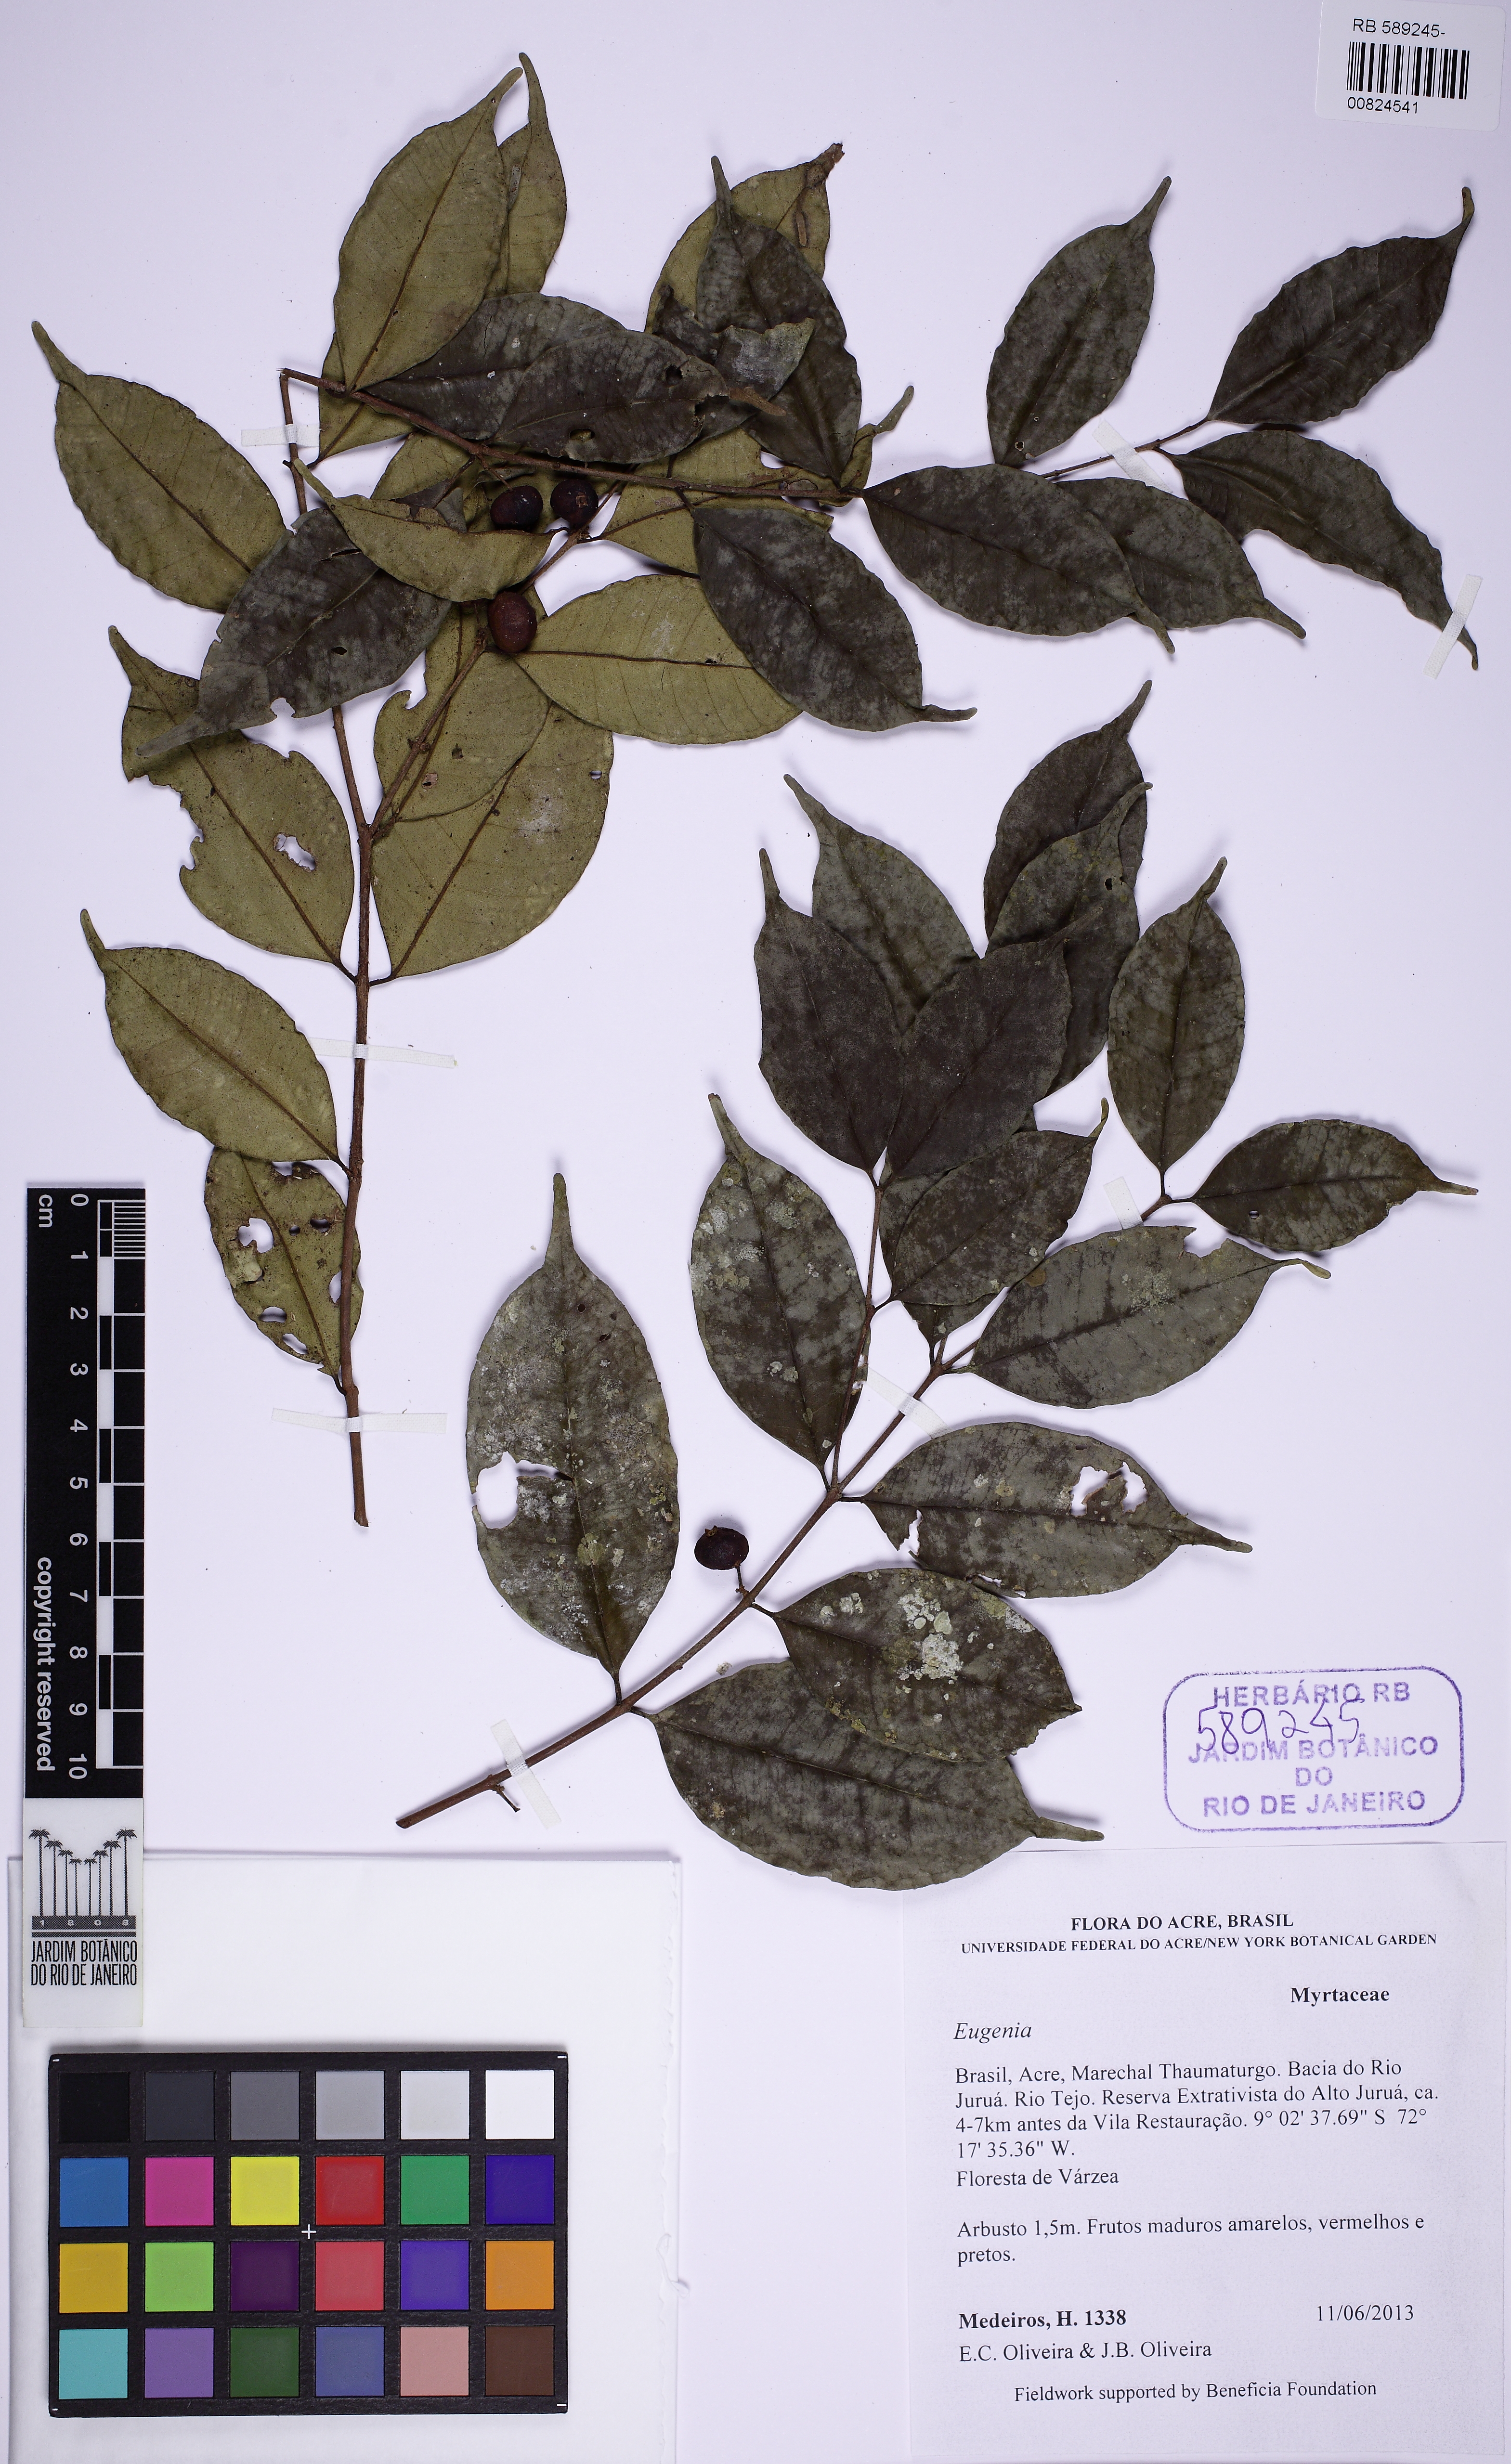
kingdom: Plantae
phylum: Tracheophyta
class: Magnoliopsida
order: Myrtales
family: Myrtaceae
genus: Eugenia
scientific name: Eugenia pusilliflora
